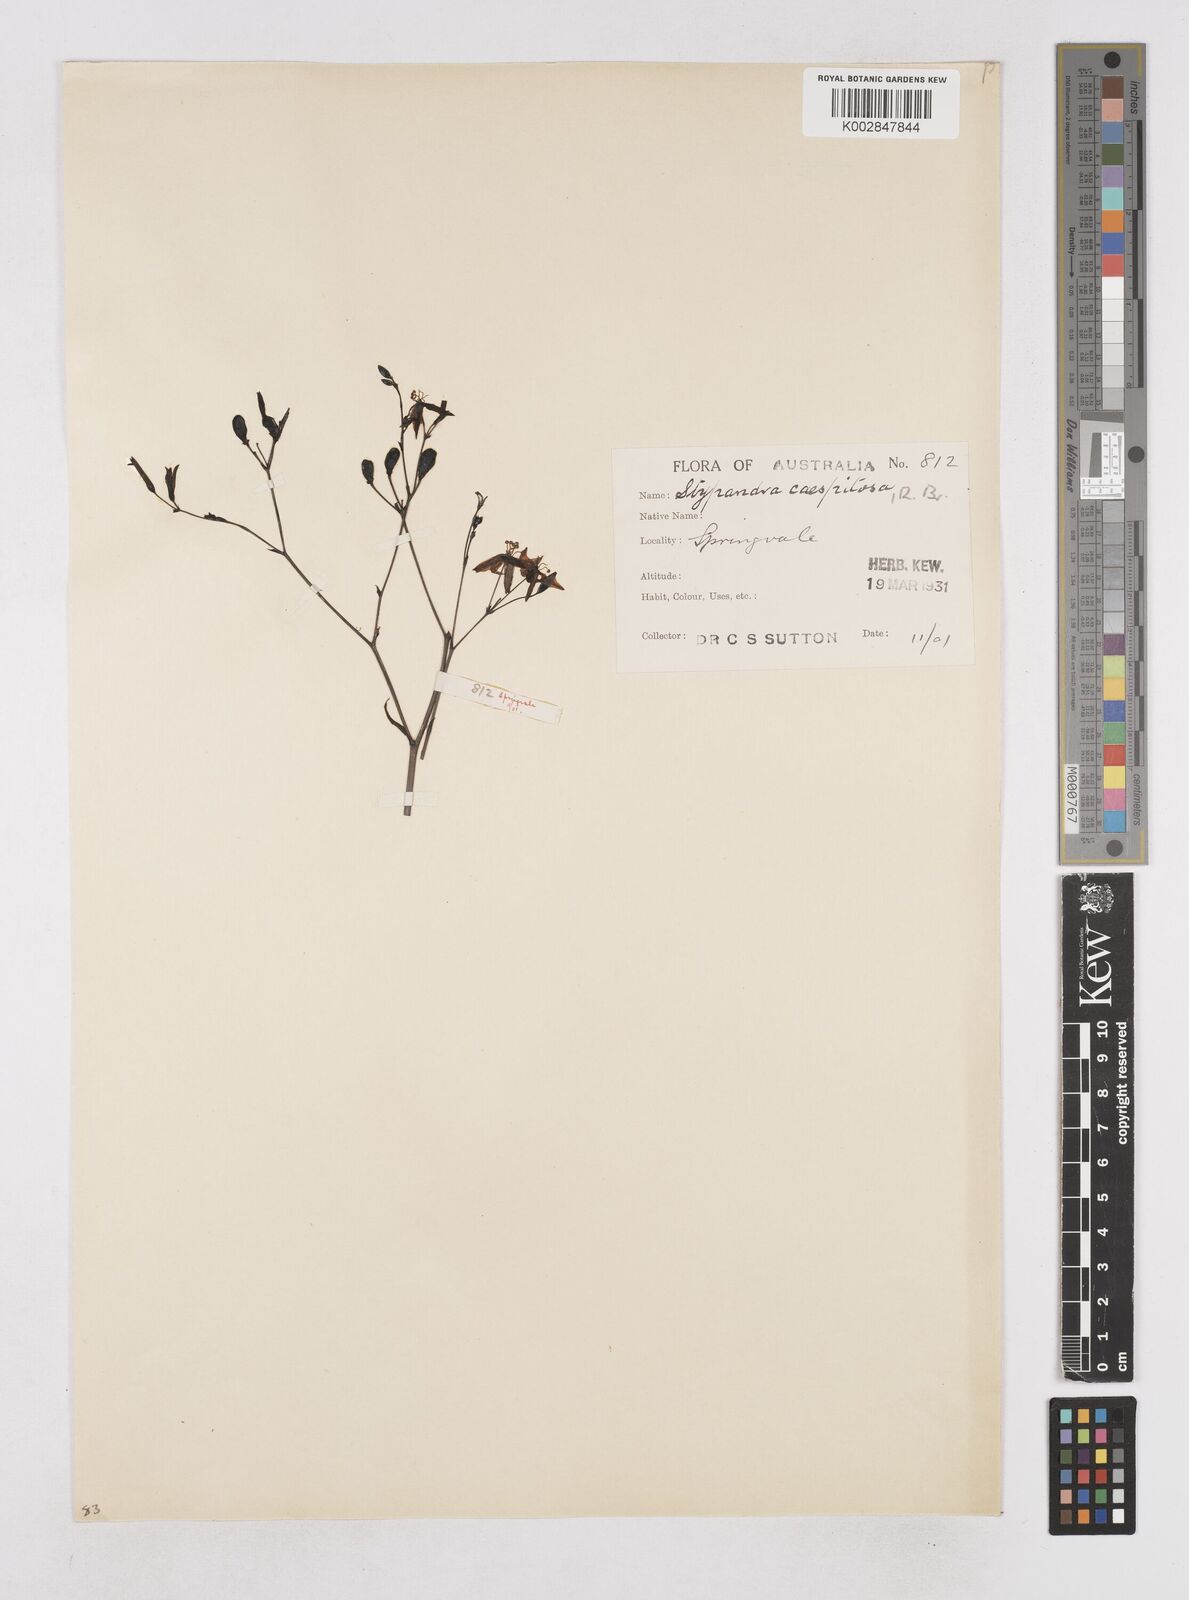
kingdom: Plantae
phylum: Tracheophyta
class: Liliopsida
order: Asparagales
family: Asphodelaceae
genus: Thelionema
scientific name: Thelionema caespitosum
